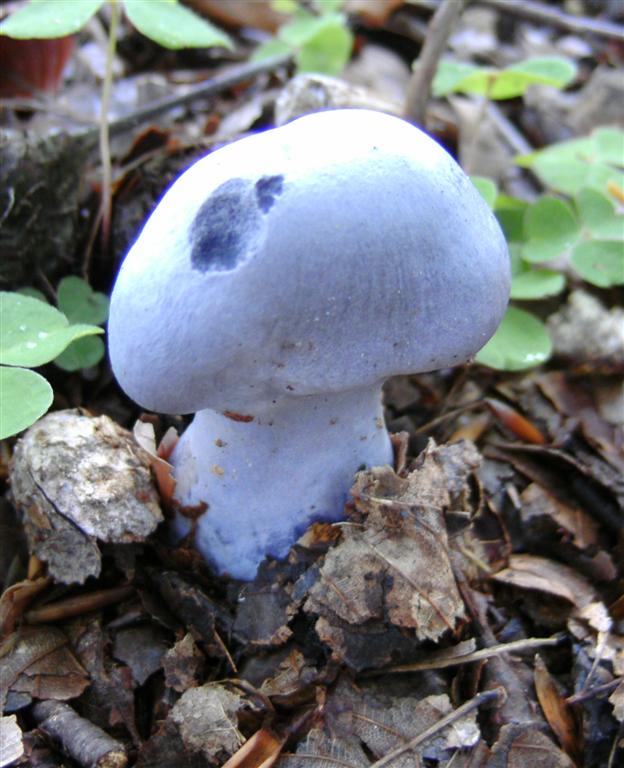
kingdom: Fungi
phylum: Basidiomycota
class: Agaricomycetes
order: Agaricales
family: Cortinariaceae
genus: Cortinarius
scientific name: Cortinarius alboviolaceus
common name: lysviolet slørhat
